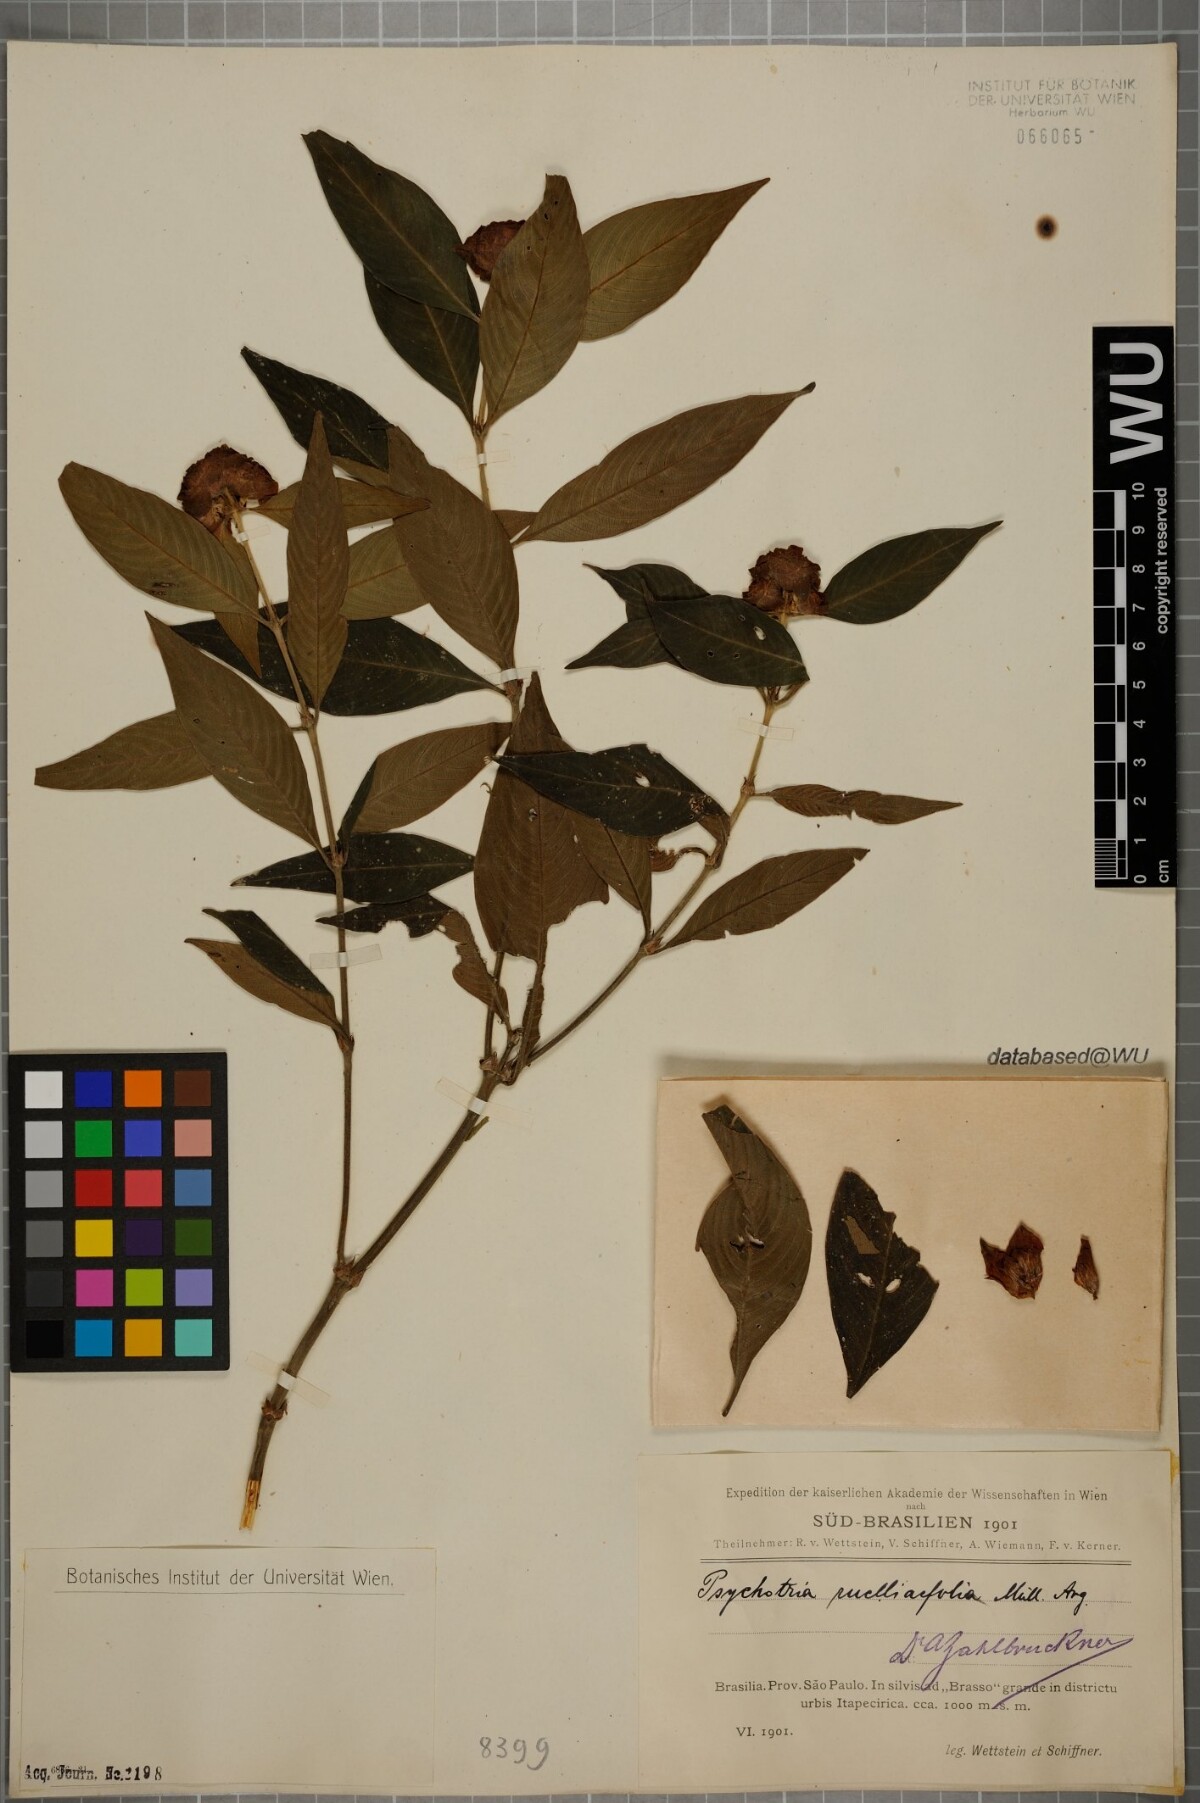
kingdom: Plantae
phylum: Tracheophyta
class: Magnoliopsida
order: Gentianales
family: Rubiaceae
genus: Palicourea
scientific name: Palicourea ruelliifolia
